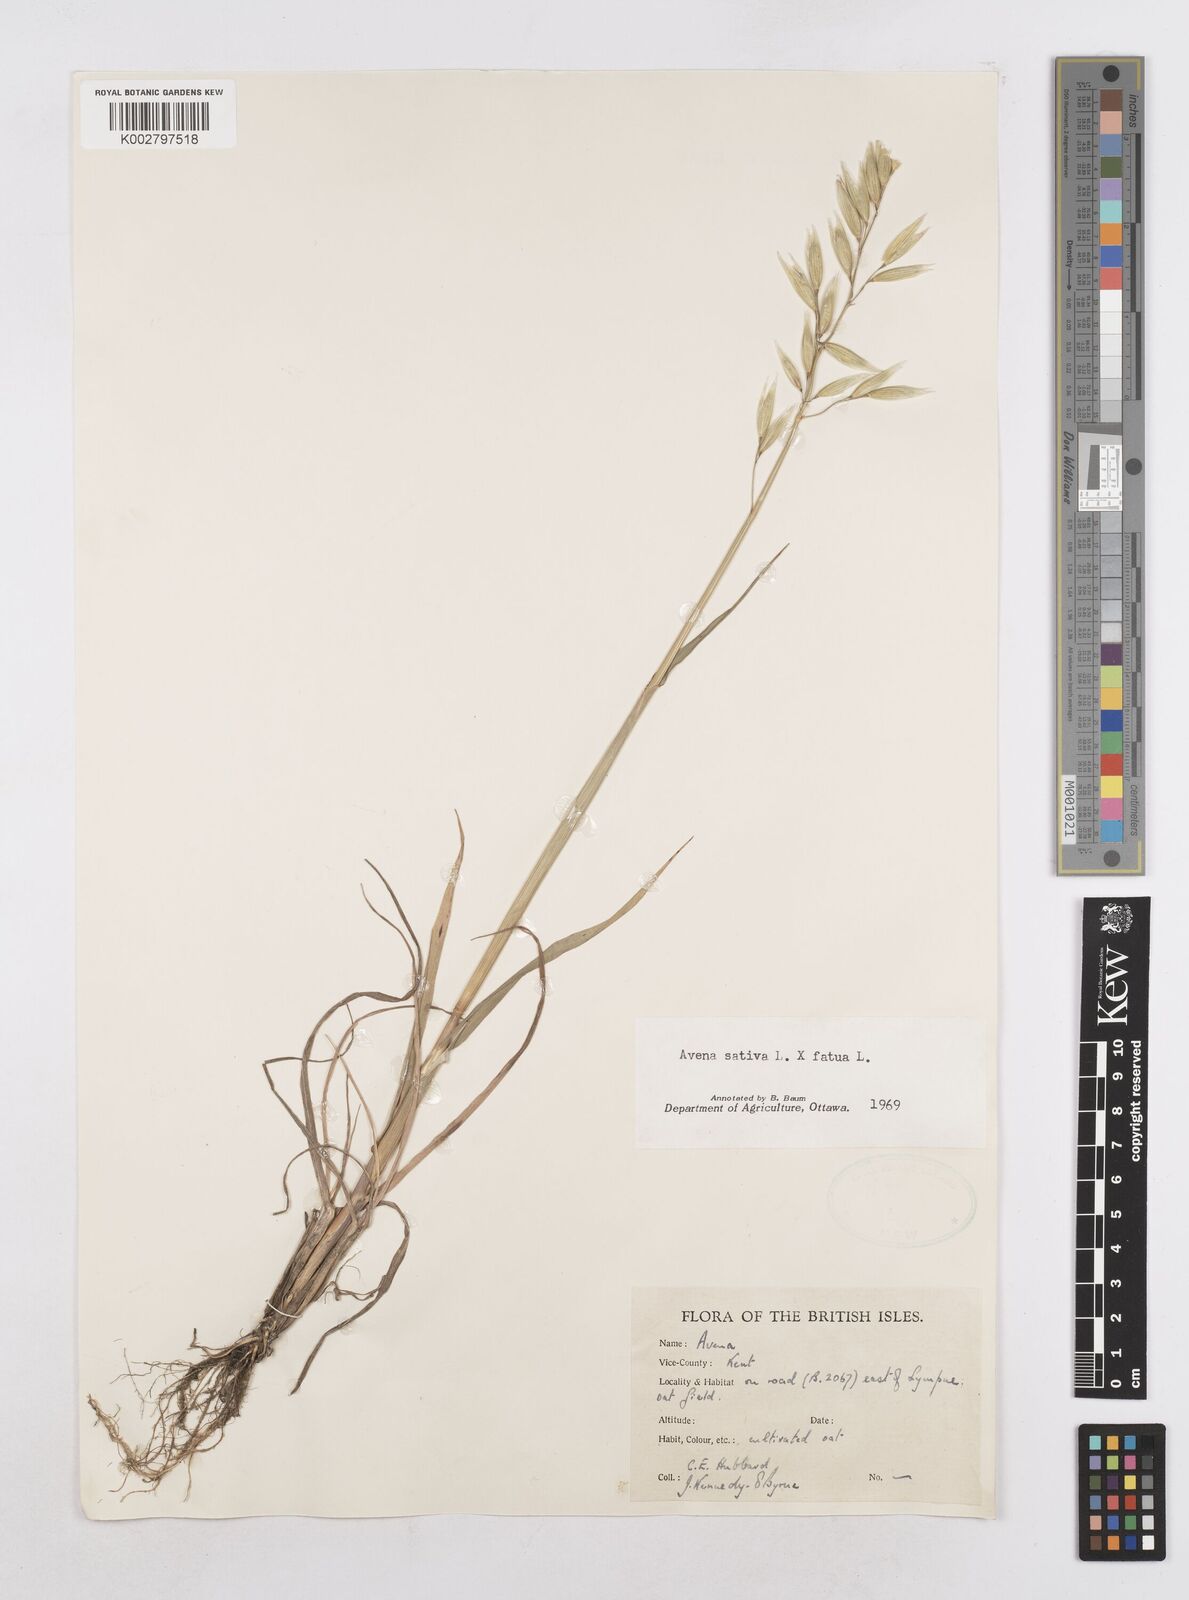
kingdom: Plantae
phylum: Tracheophyta
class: Liliopsida
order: Poales
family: Poaceae
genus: Avena
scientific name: Avena fatua
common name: Wild oat
